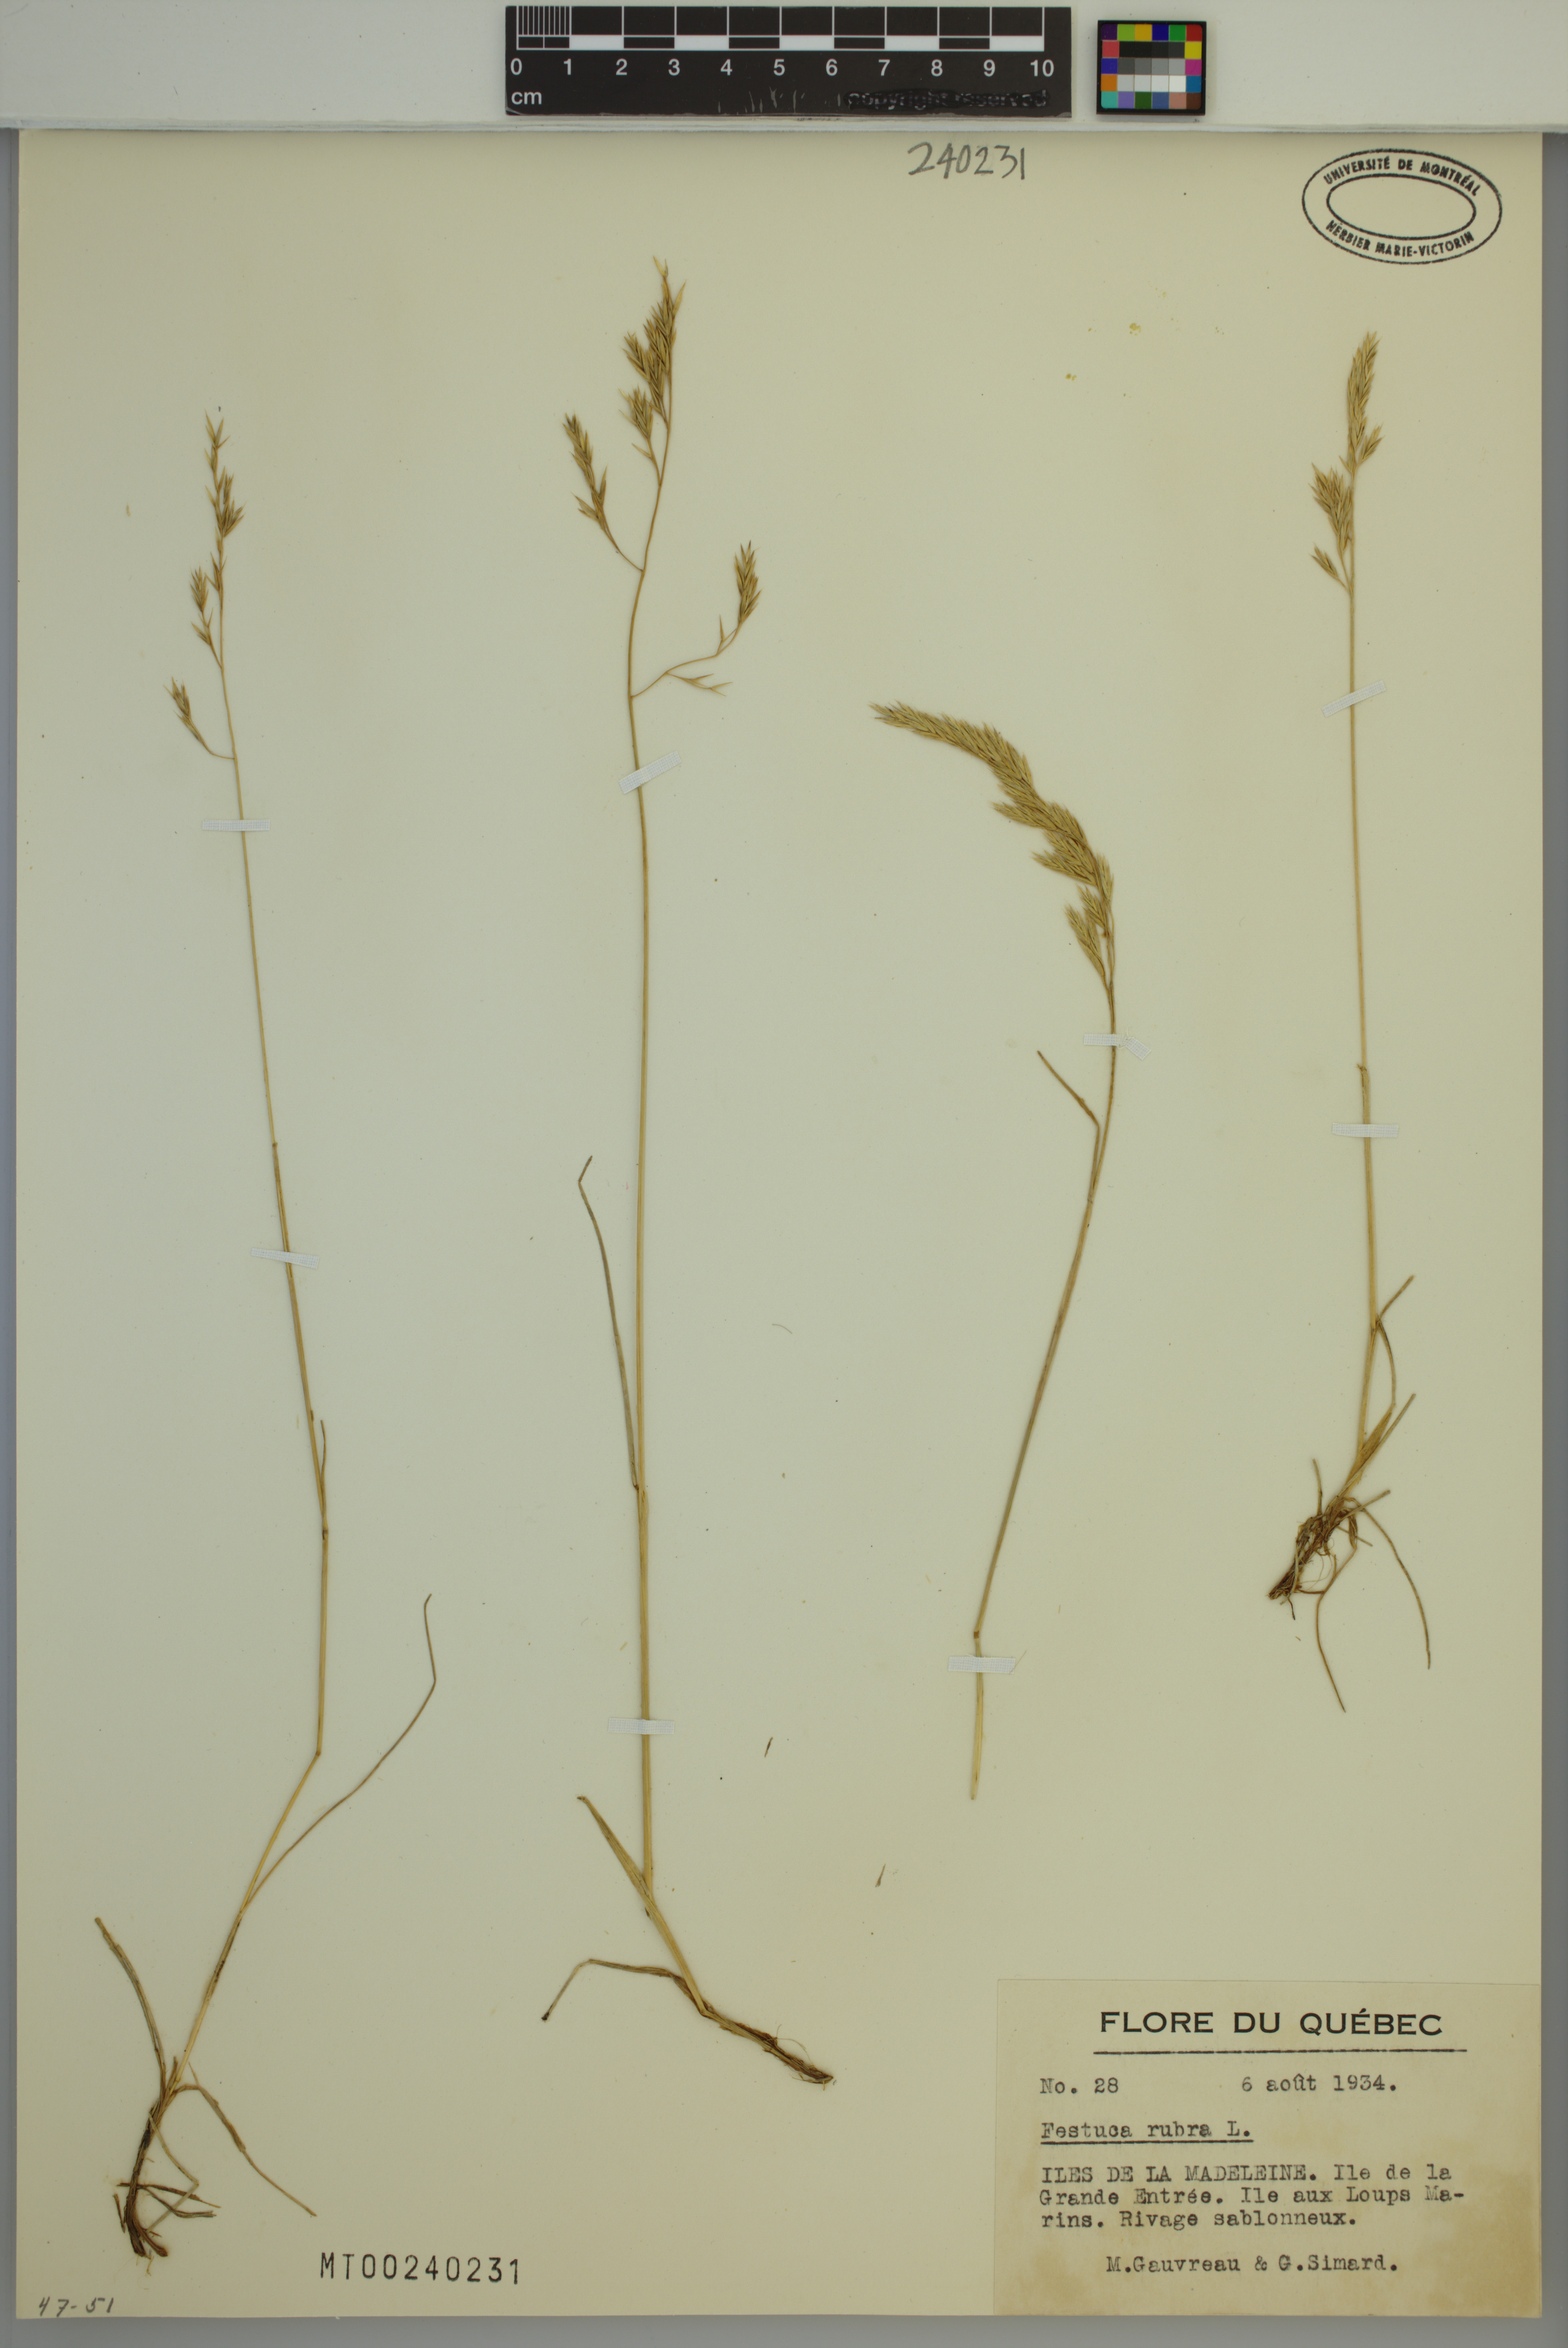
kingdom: Plantae
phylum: Tracheophyta
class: Liliopsida
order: Poales
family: Poaceae
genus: Festuca
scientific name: Festuca rubra
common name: Red fescue
